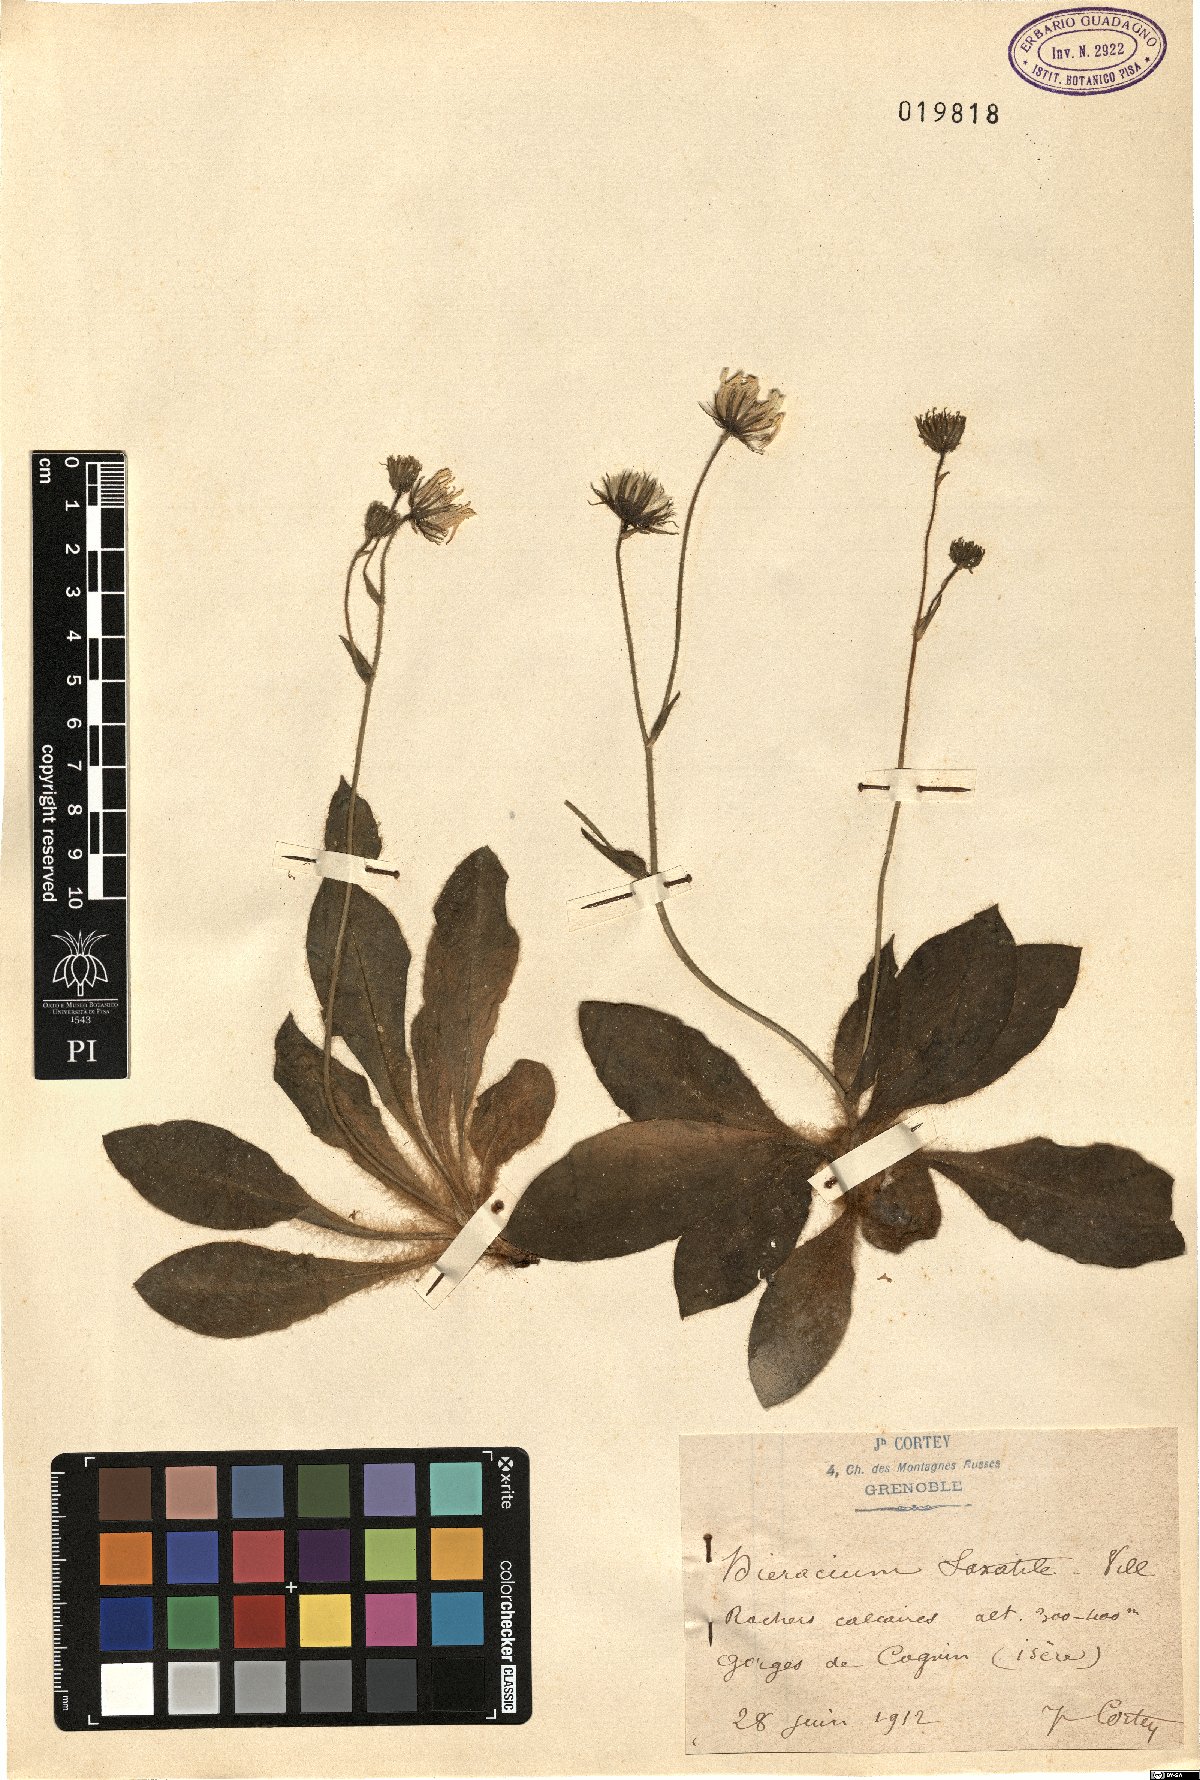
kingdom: Plantae
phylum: Tracheophyta
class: Magnoliopsida
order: Asterales
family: Asteraceae
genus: Hieracium
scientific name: Hieracium lawsonii
